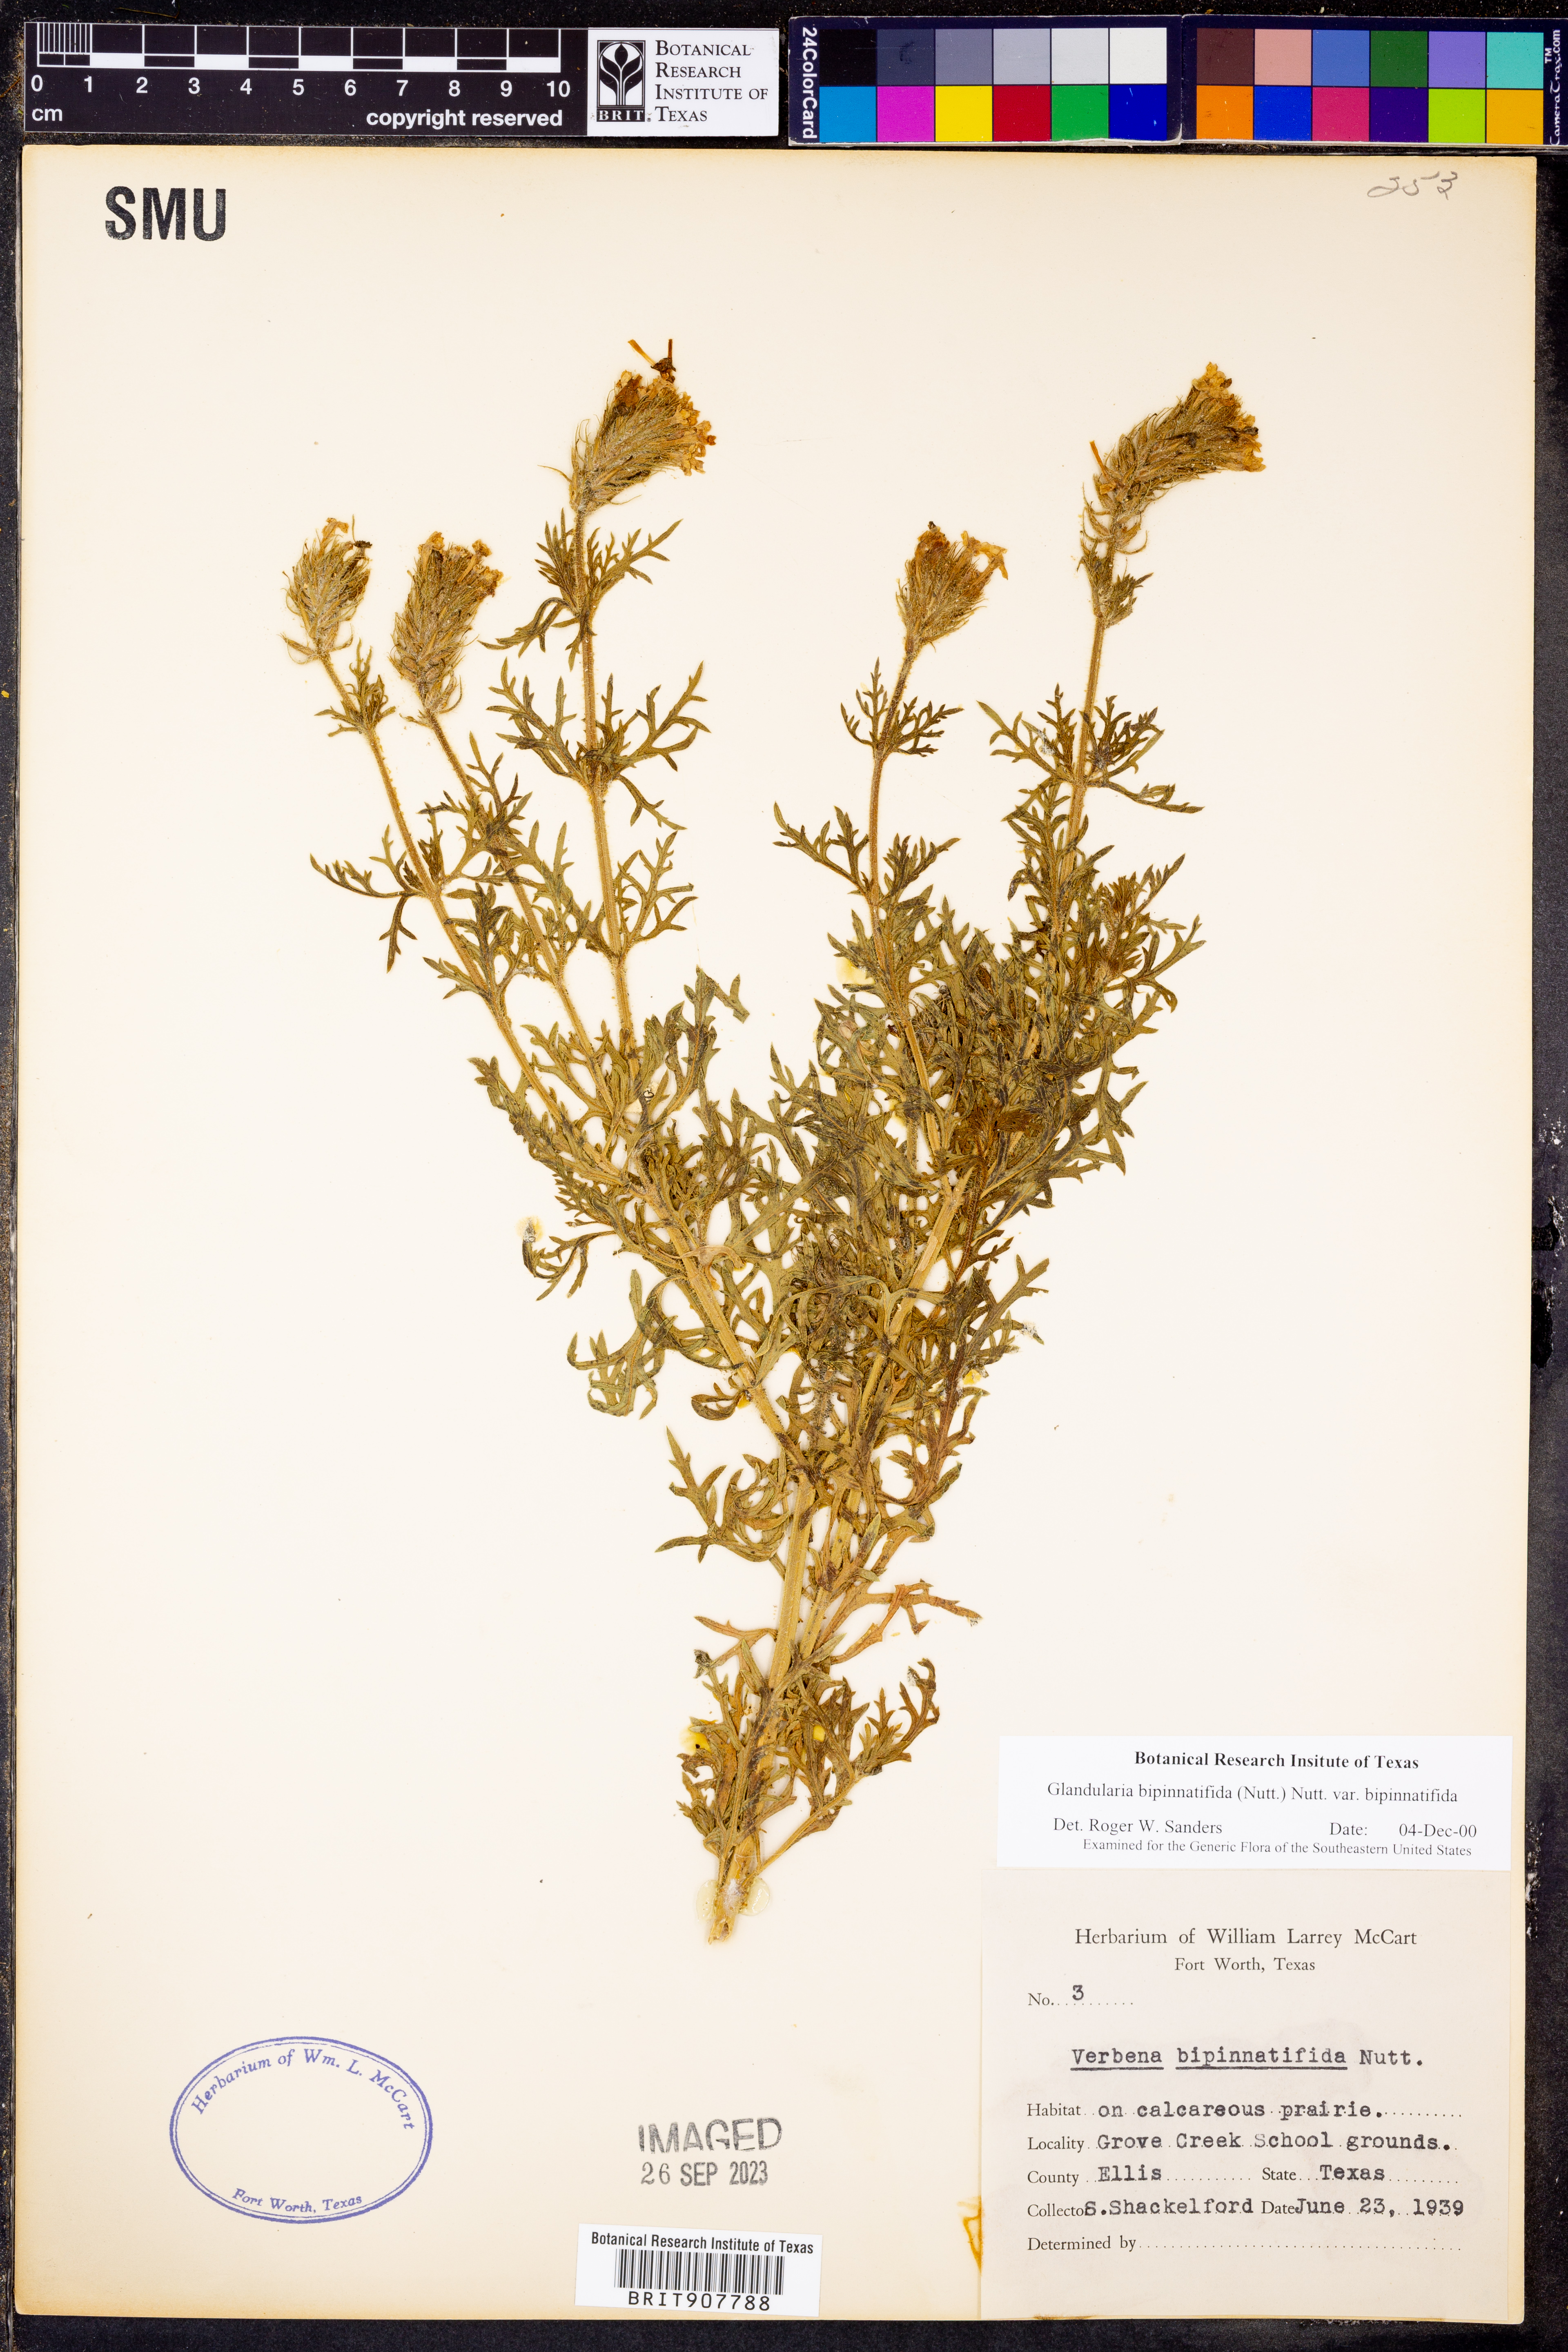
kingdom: Plantae
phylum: Tracheophyta
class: Magnoliopsida
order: Lamiales
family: Verbenaceae
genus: Verbena
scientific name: Verbena bipinnatifida
